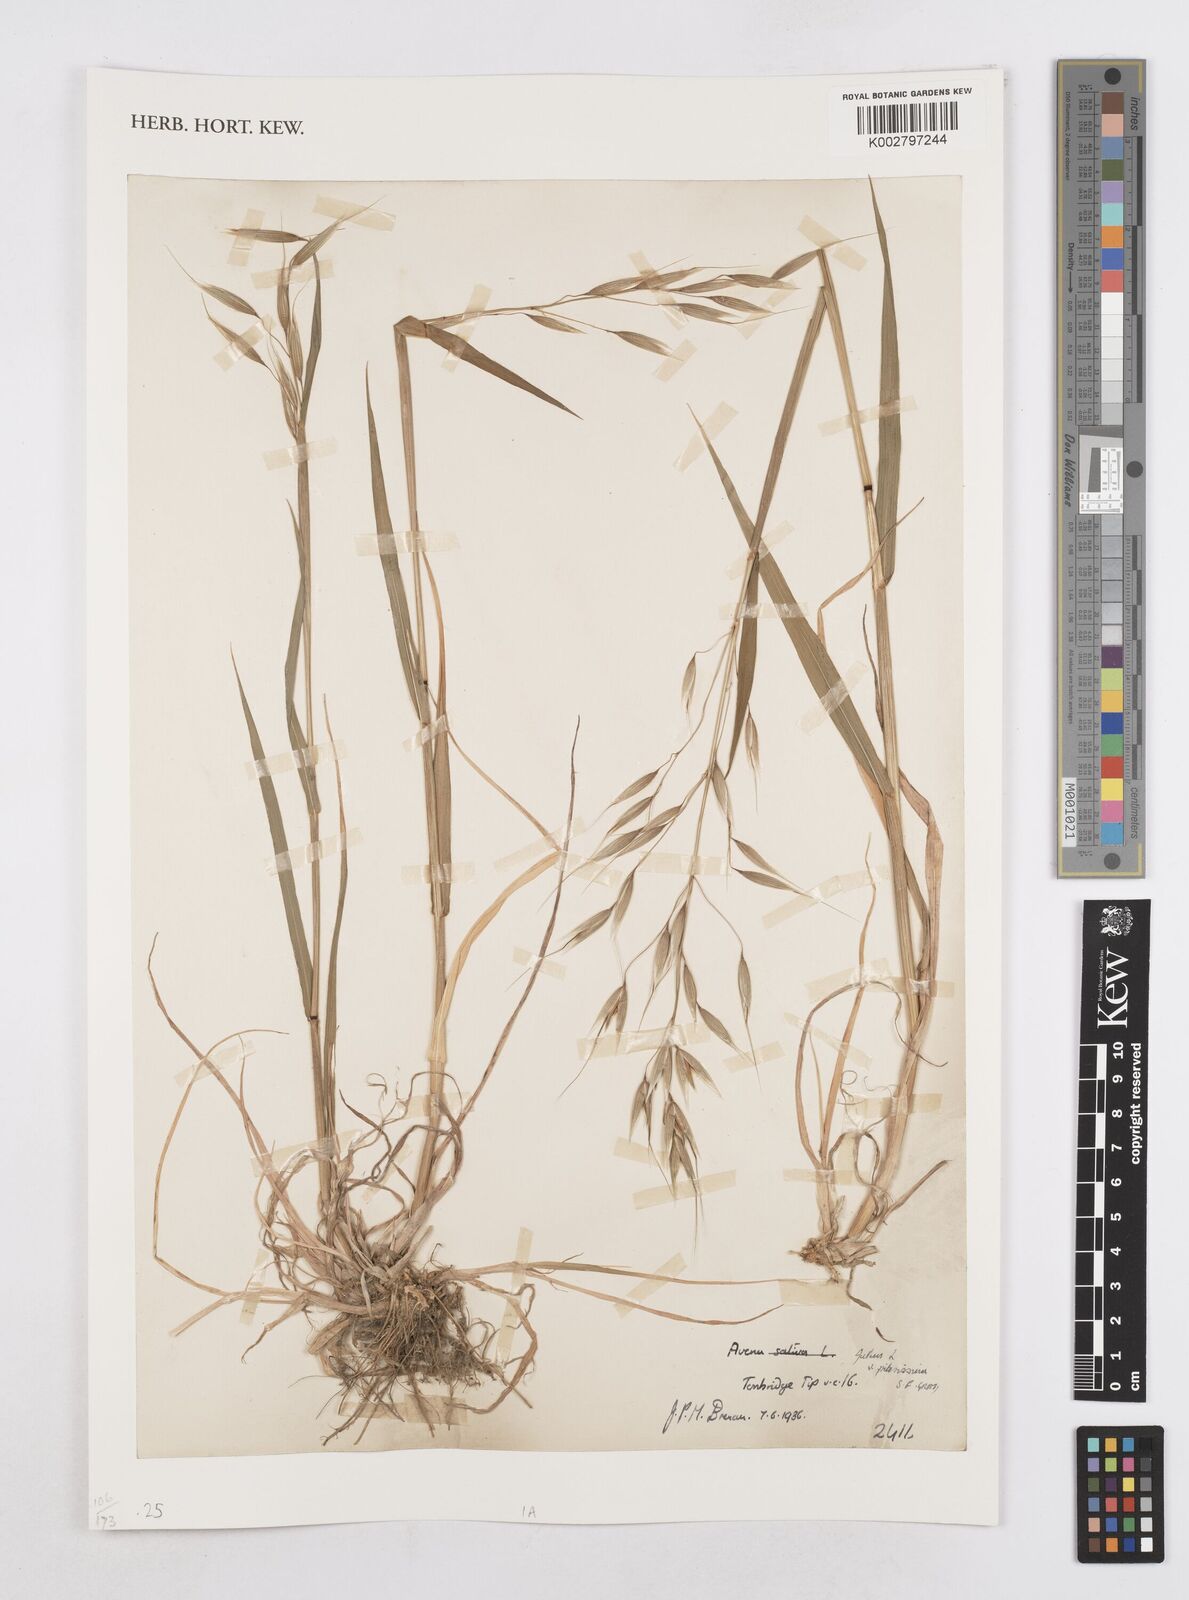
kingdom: Plantae
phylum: Tracheophyta
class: Liliopsida
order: Poales
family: Poaceae
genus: Avena
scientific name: Avena fatua
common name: Wild oat
